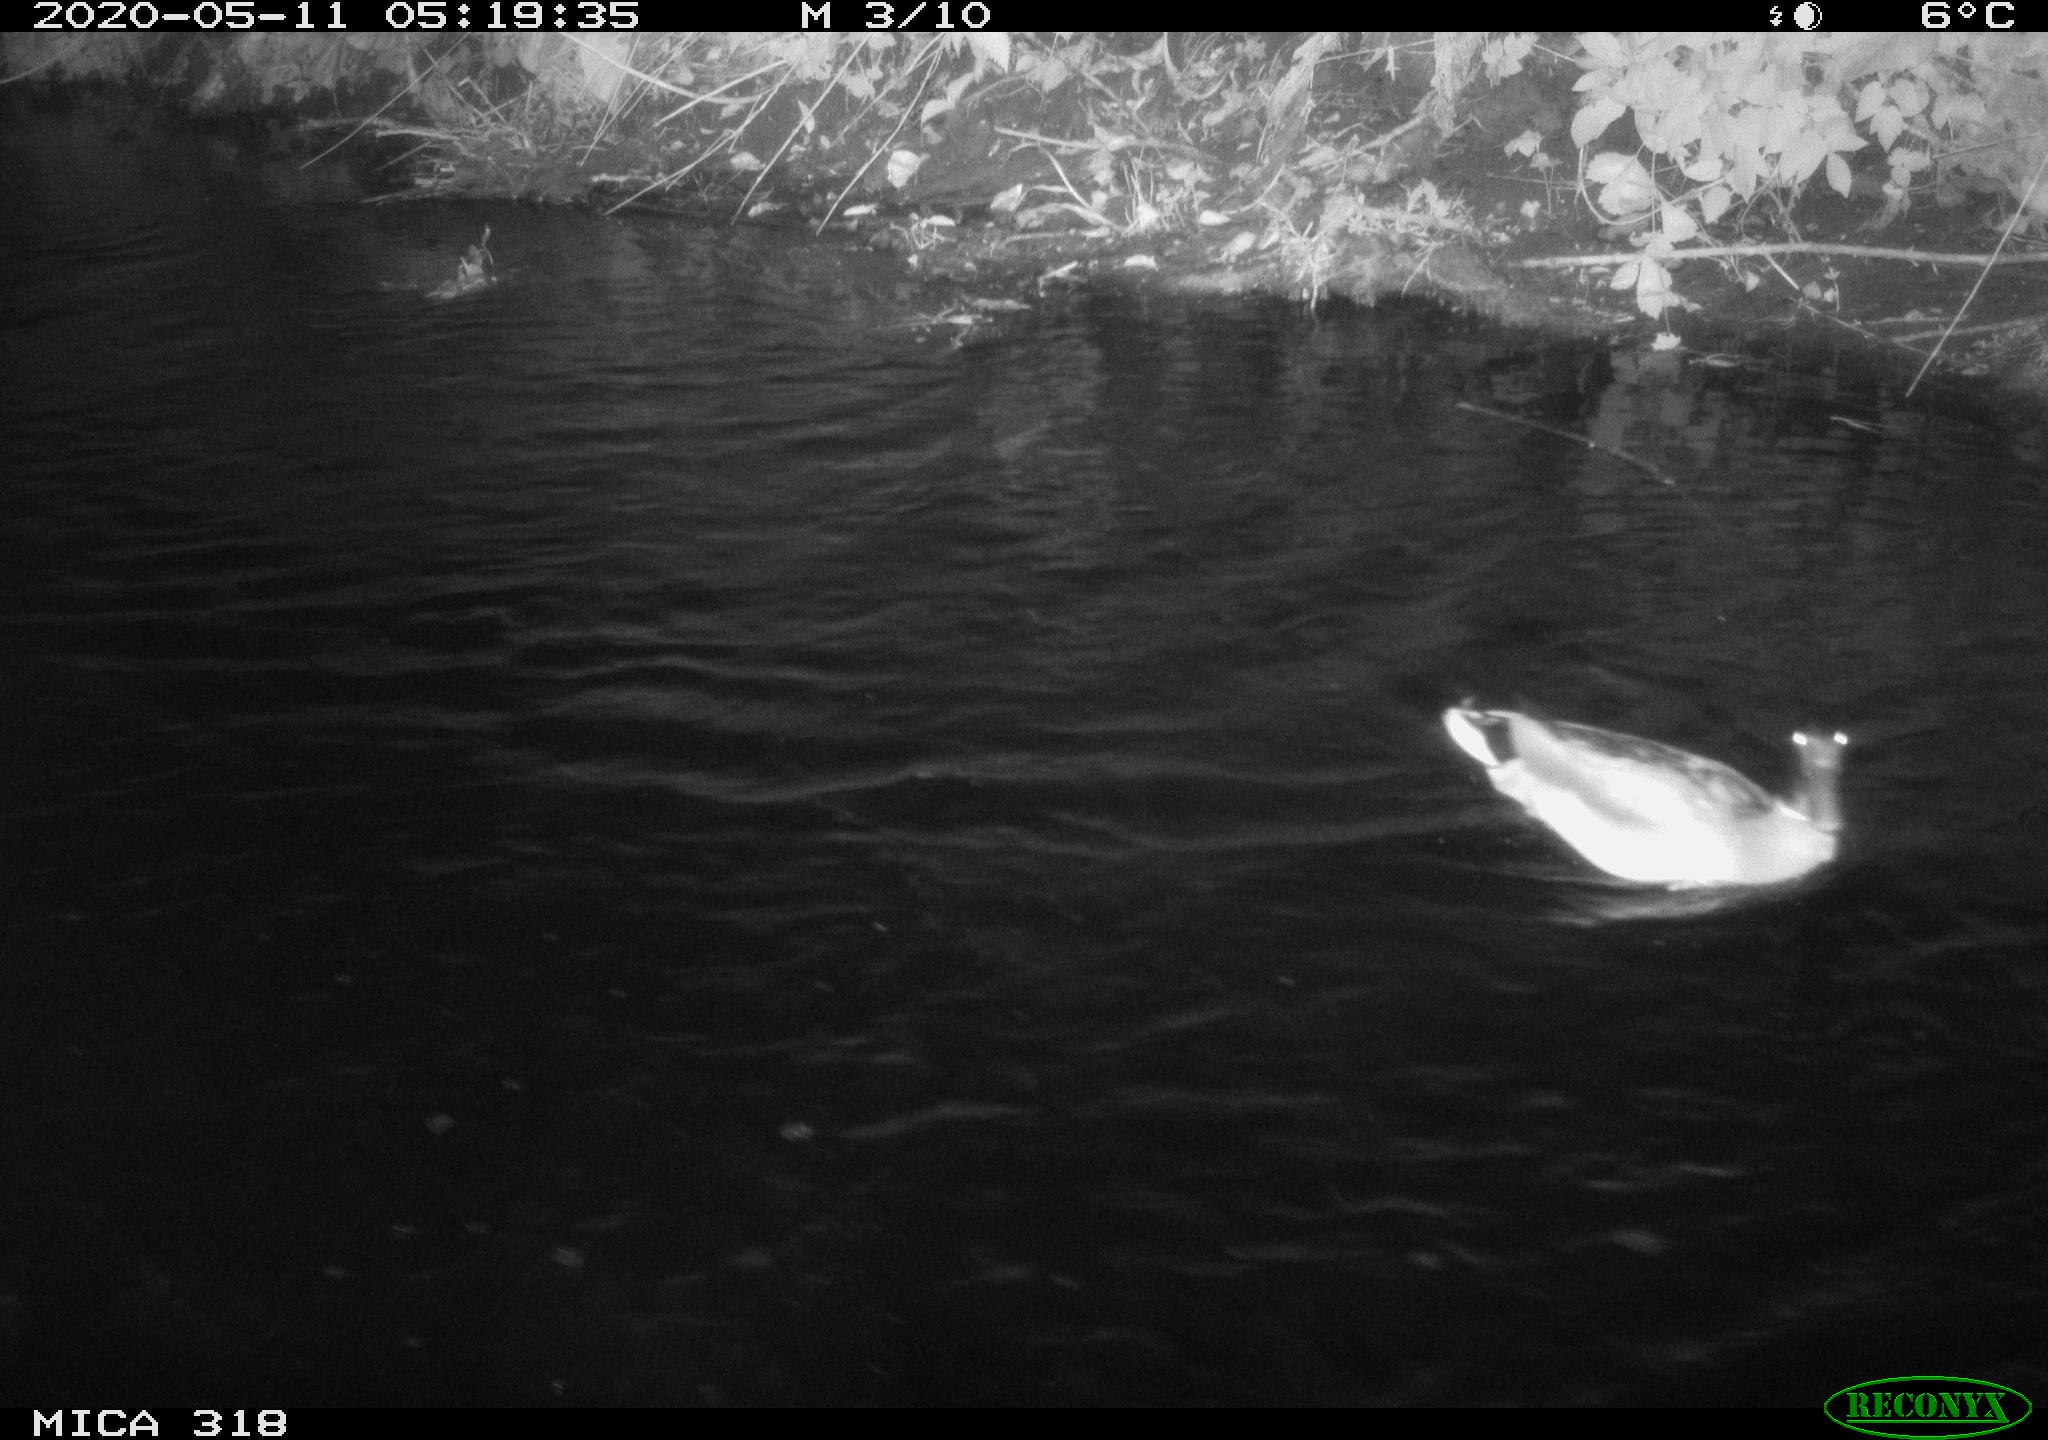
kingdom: Animalia
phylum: Chordata
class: Aves
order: Anseriformes
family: Anatidae
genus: Anas
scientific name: Anas platyrhynchos
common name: Mallard
